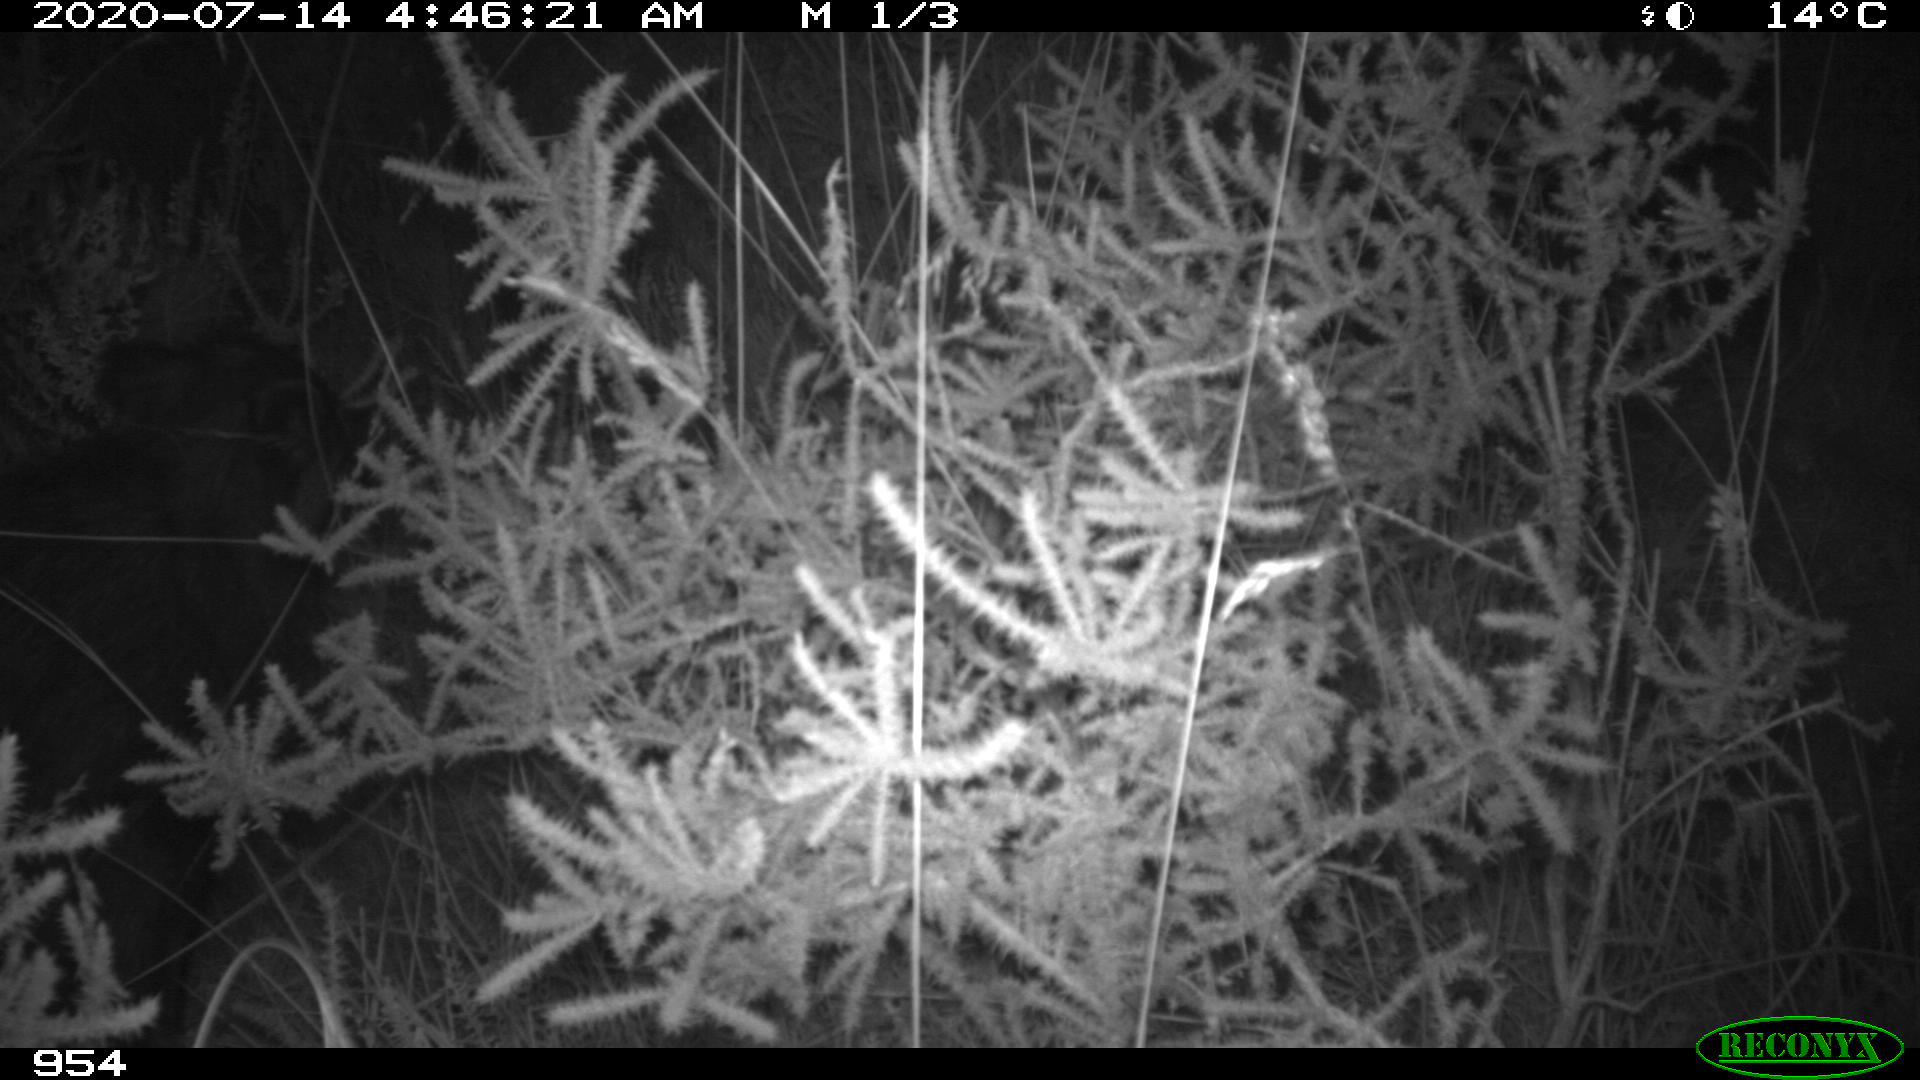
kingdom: Animalia
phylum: Chordata
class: Mammalia
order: Artiodactyla
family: Suidae
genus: Sus
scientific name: Sus scrofa
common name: Wild boar
